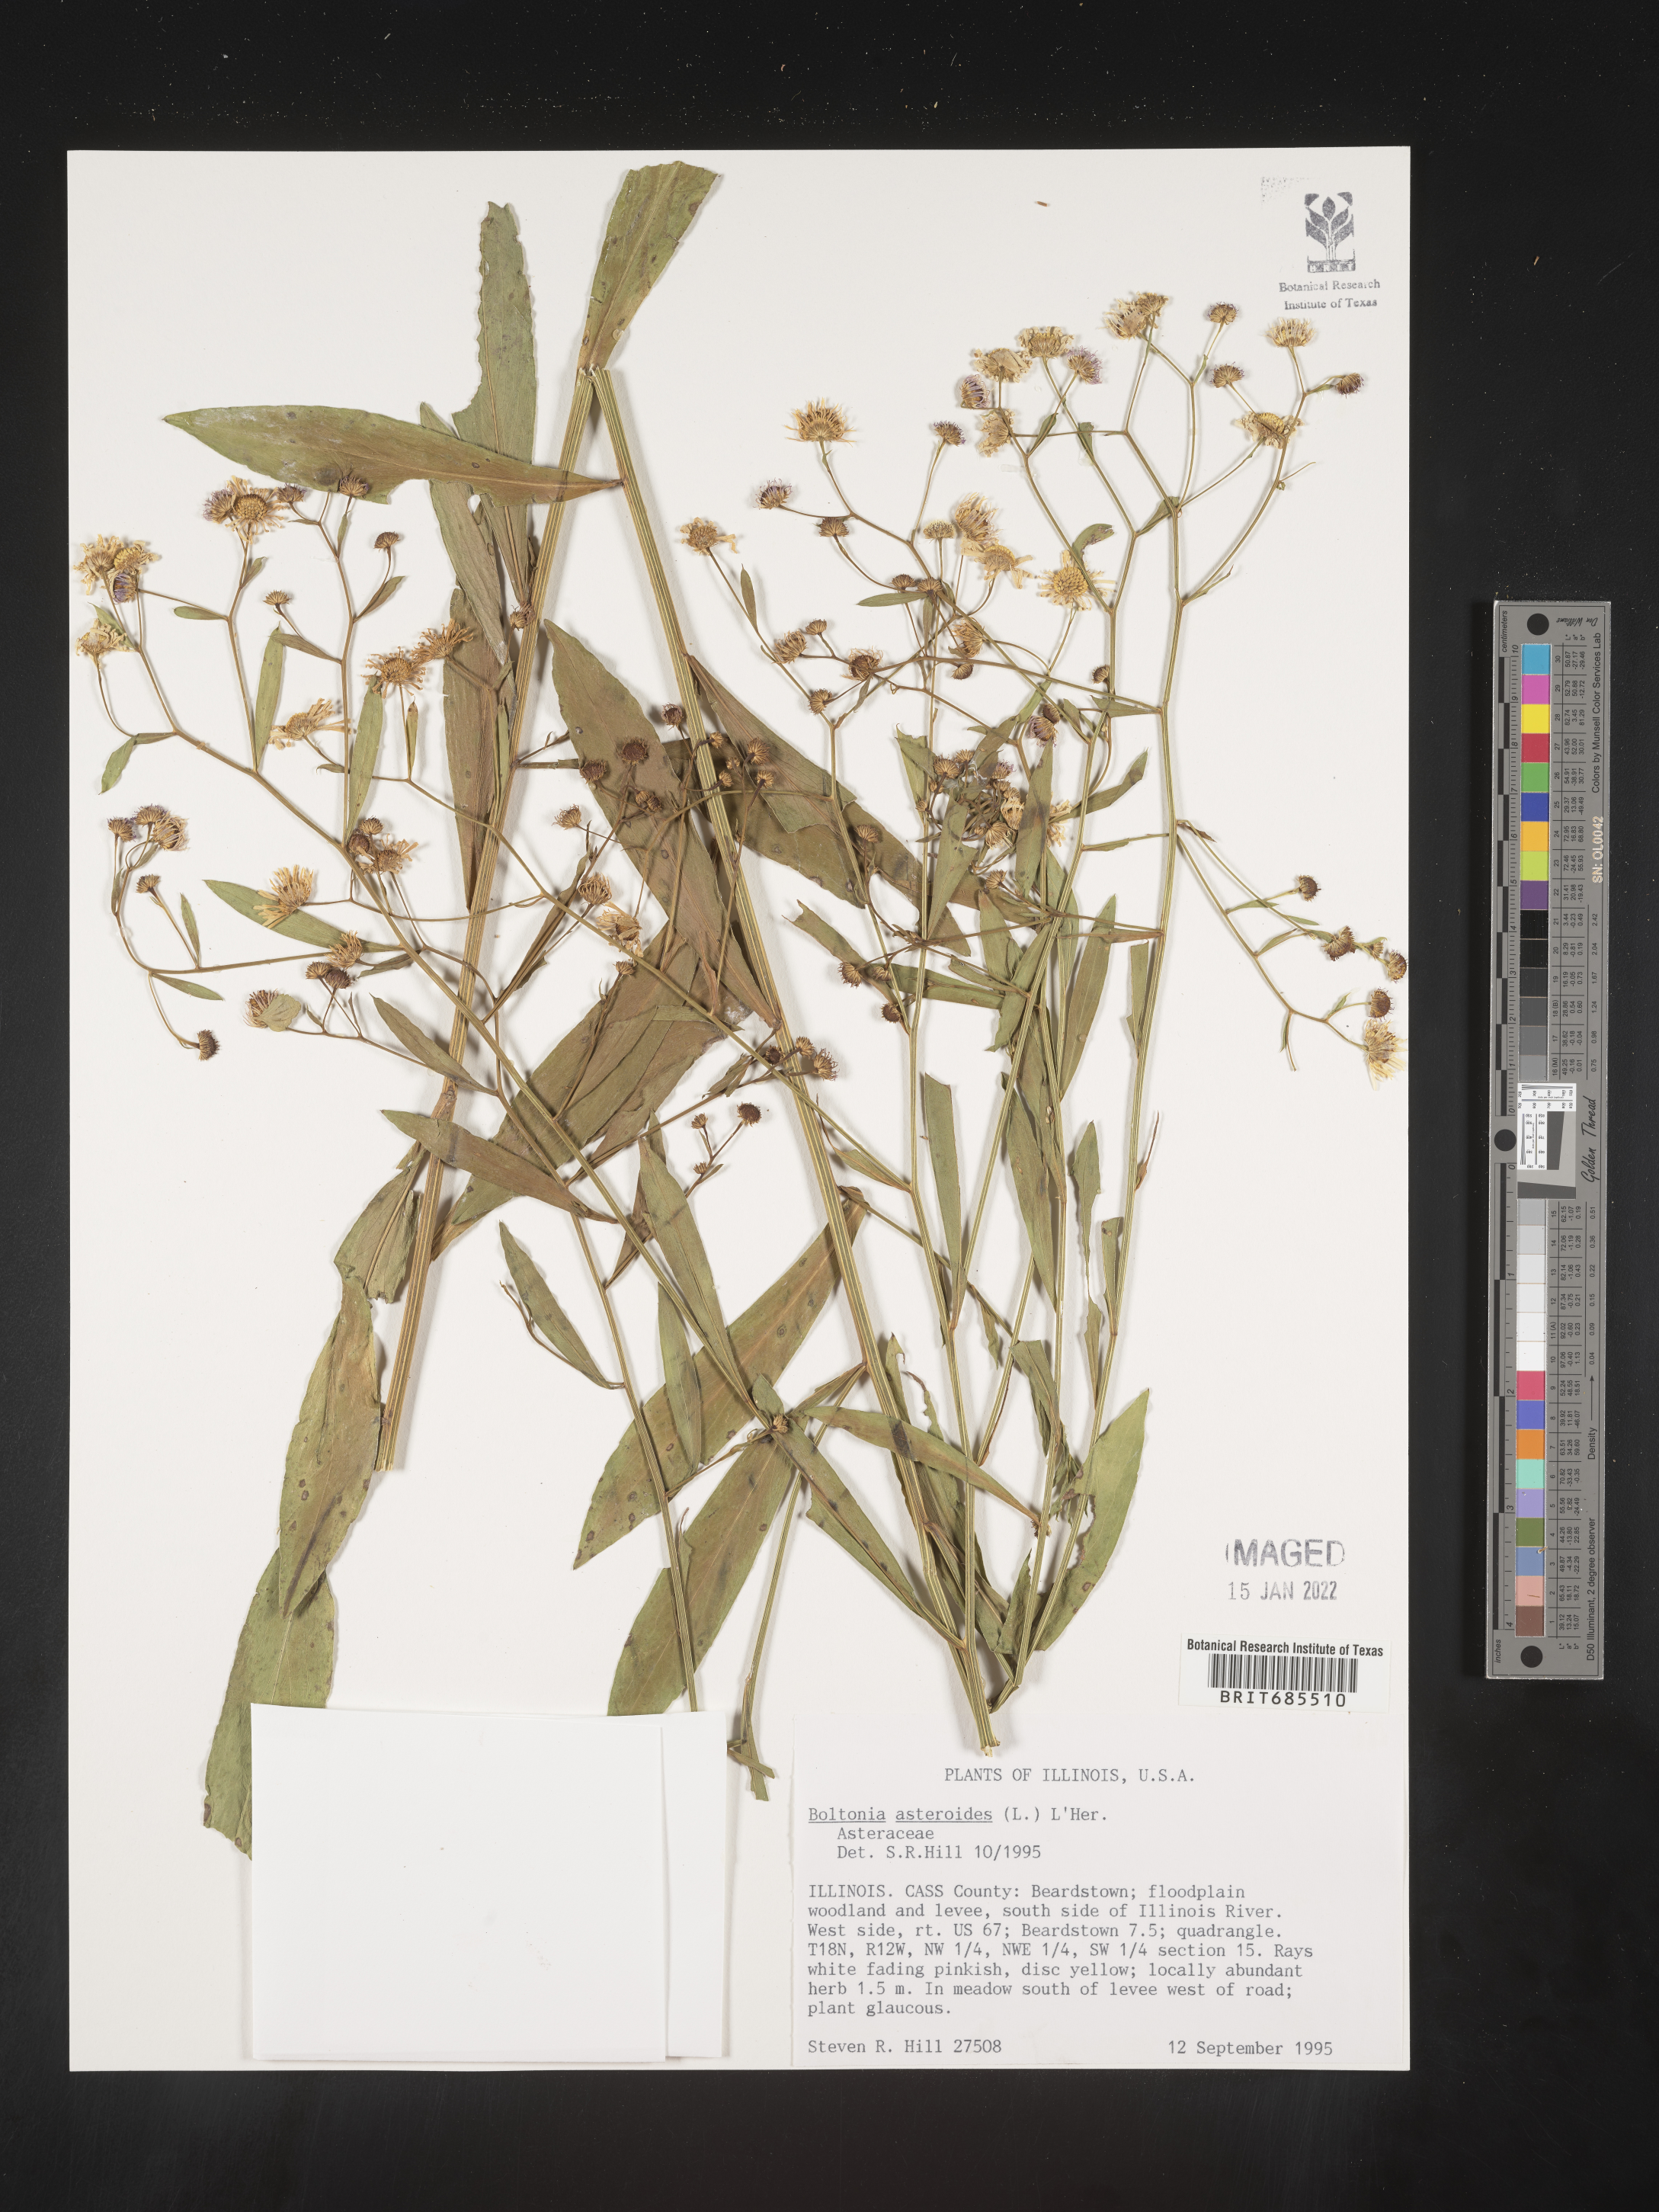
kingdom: Plantae
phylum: Tracheophyta
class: Magnoliopsida
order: Asterales
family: Asteraceae
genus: Boltonia
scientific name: Boltonia asteroides
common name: False chamomile
